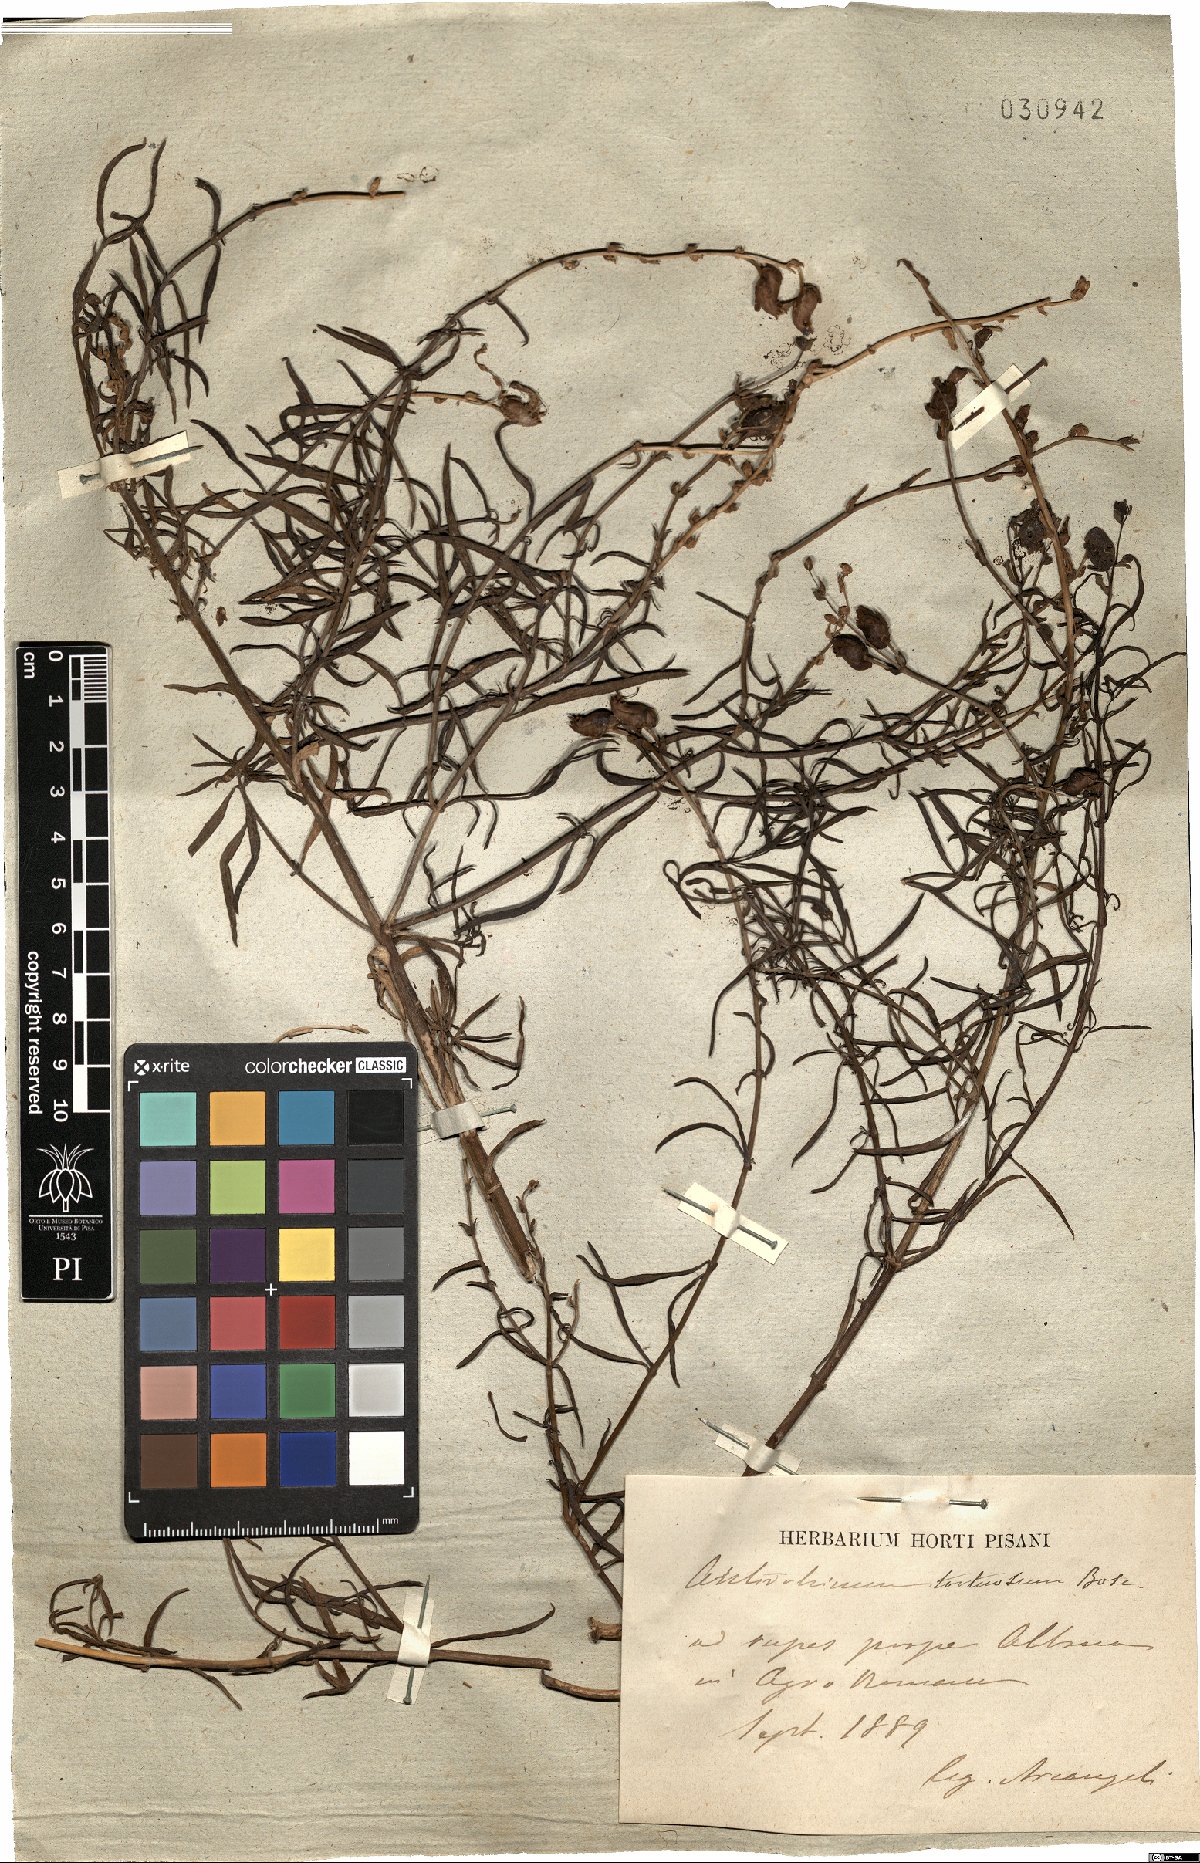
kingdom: Plantae
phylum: Tracheophyta
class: Magnoliopsida
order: Lamiales
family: Plantaginaceae
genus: Antirrhinum
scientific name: Antirrhinum tortuosum
